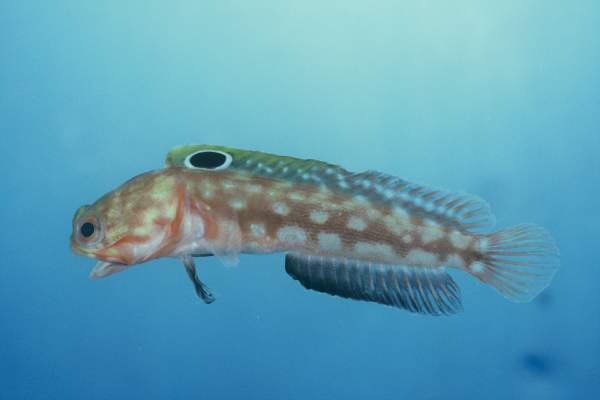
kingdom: Animalia
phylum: Chordata
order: Perciformes
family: Opistognathidae
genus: Opistognathus
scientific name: Opistognathus margaretae
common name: Halfscaled jawfish
